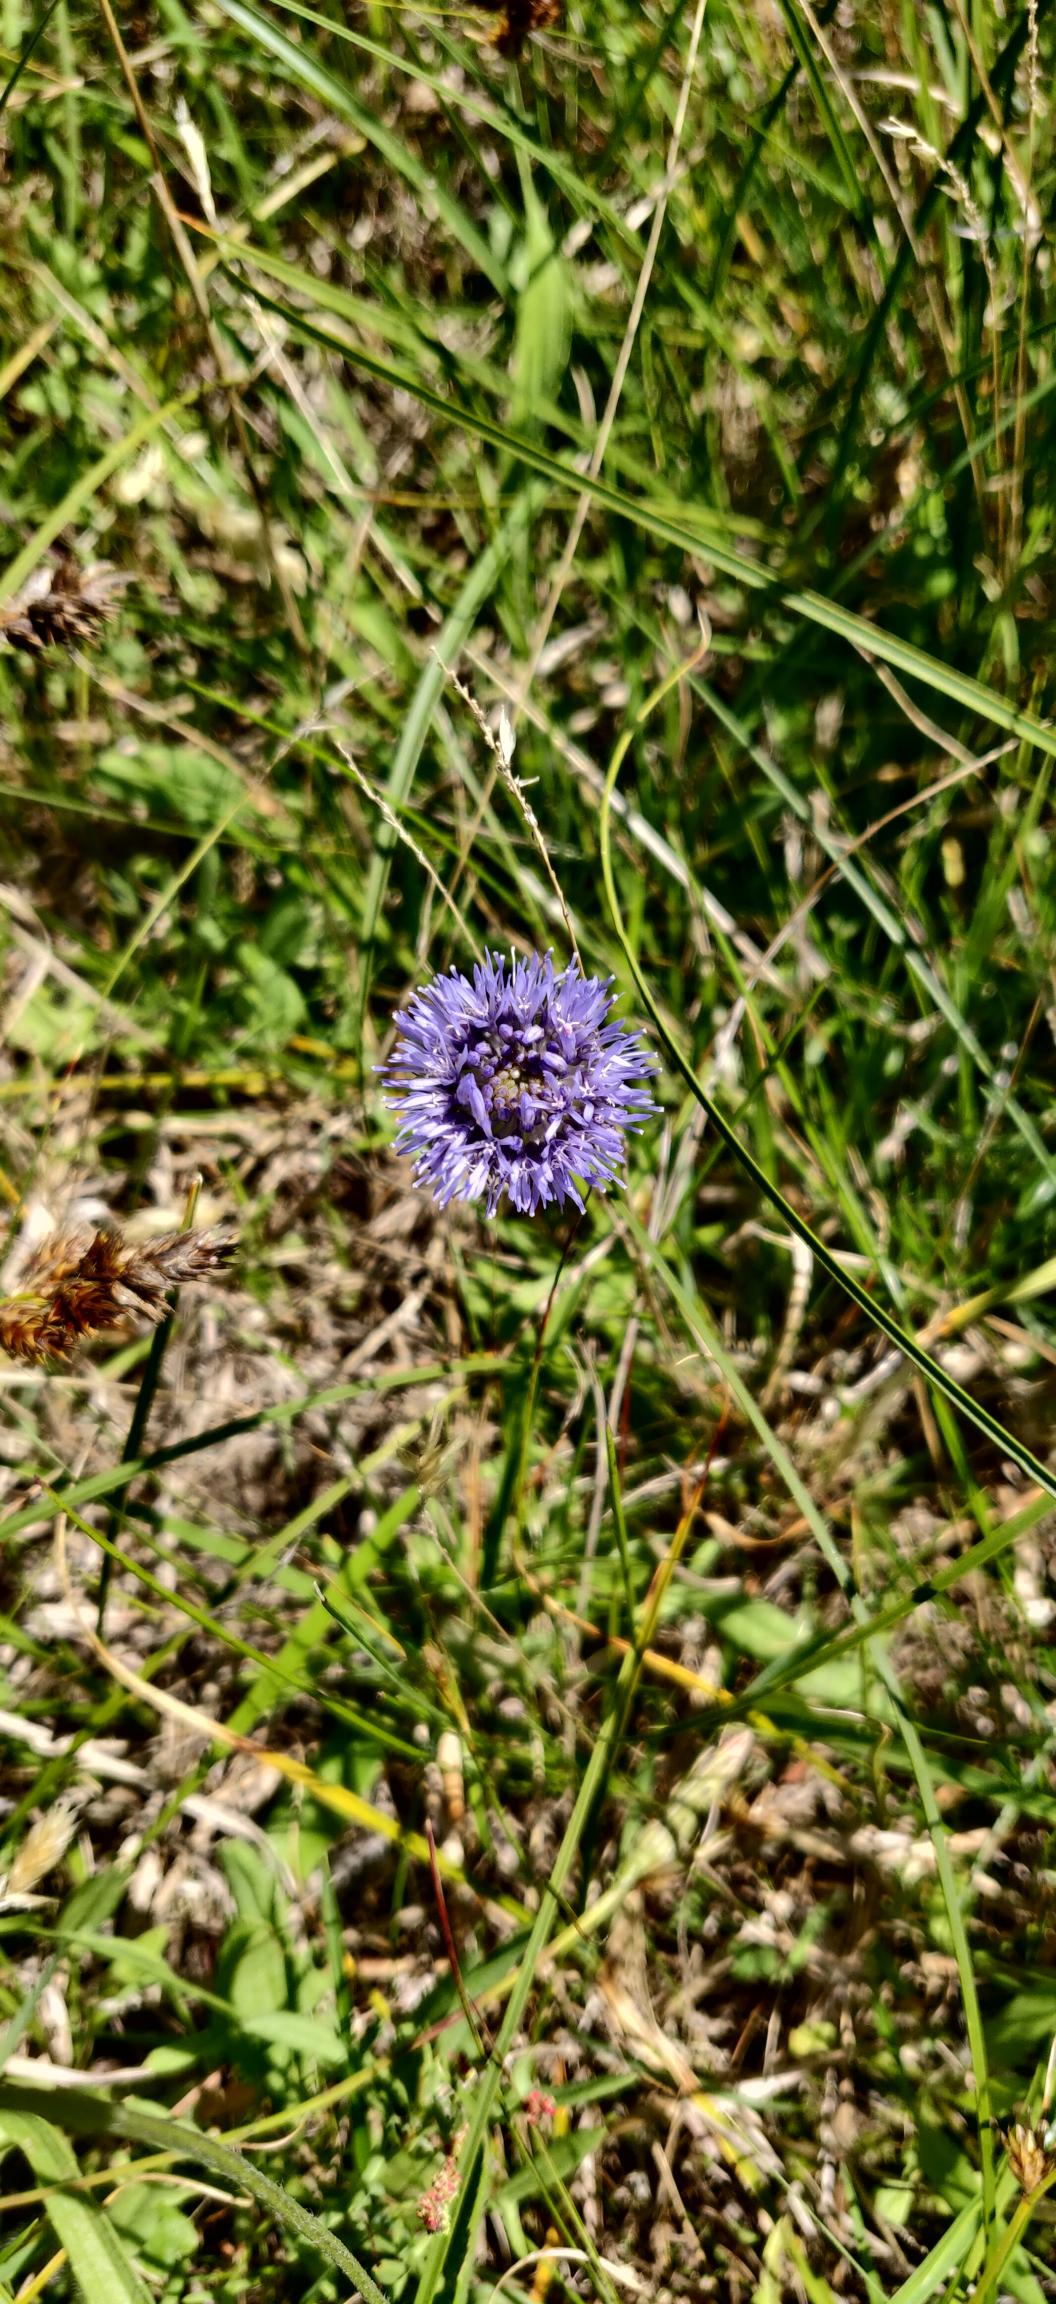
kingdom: Plantae
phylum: Tracheophyta
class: Magnoliopsida
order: Asterales
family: Campanulaceae
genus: Jasione
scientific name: Jasione montana
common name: Blåmunke
